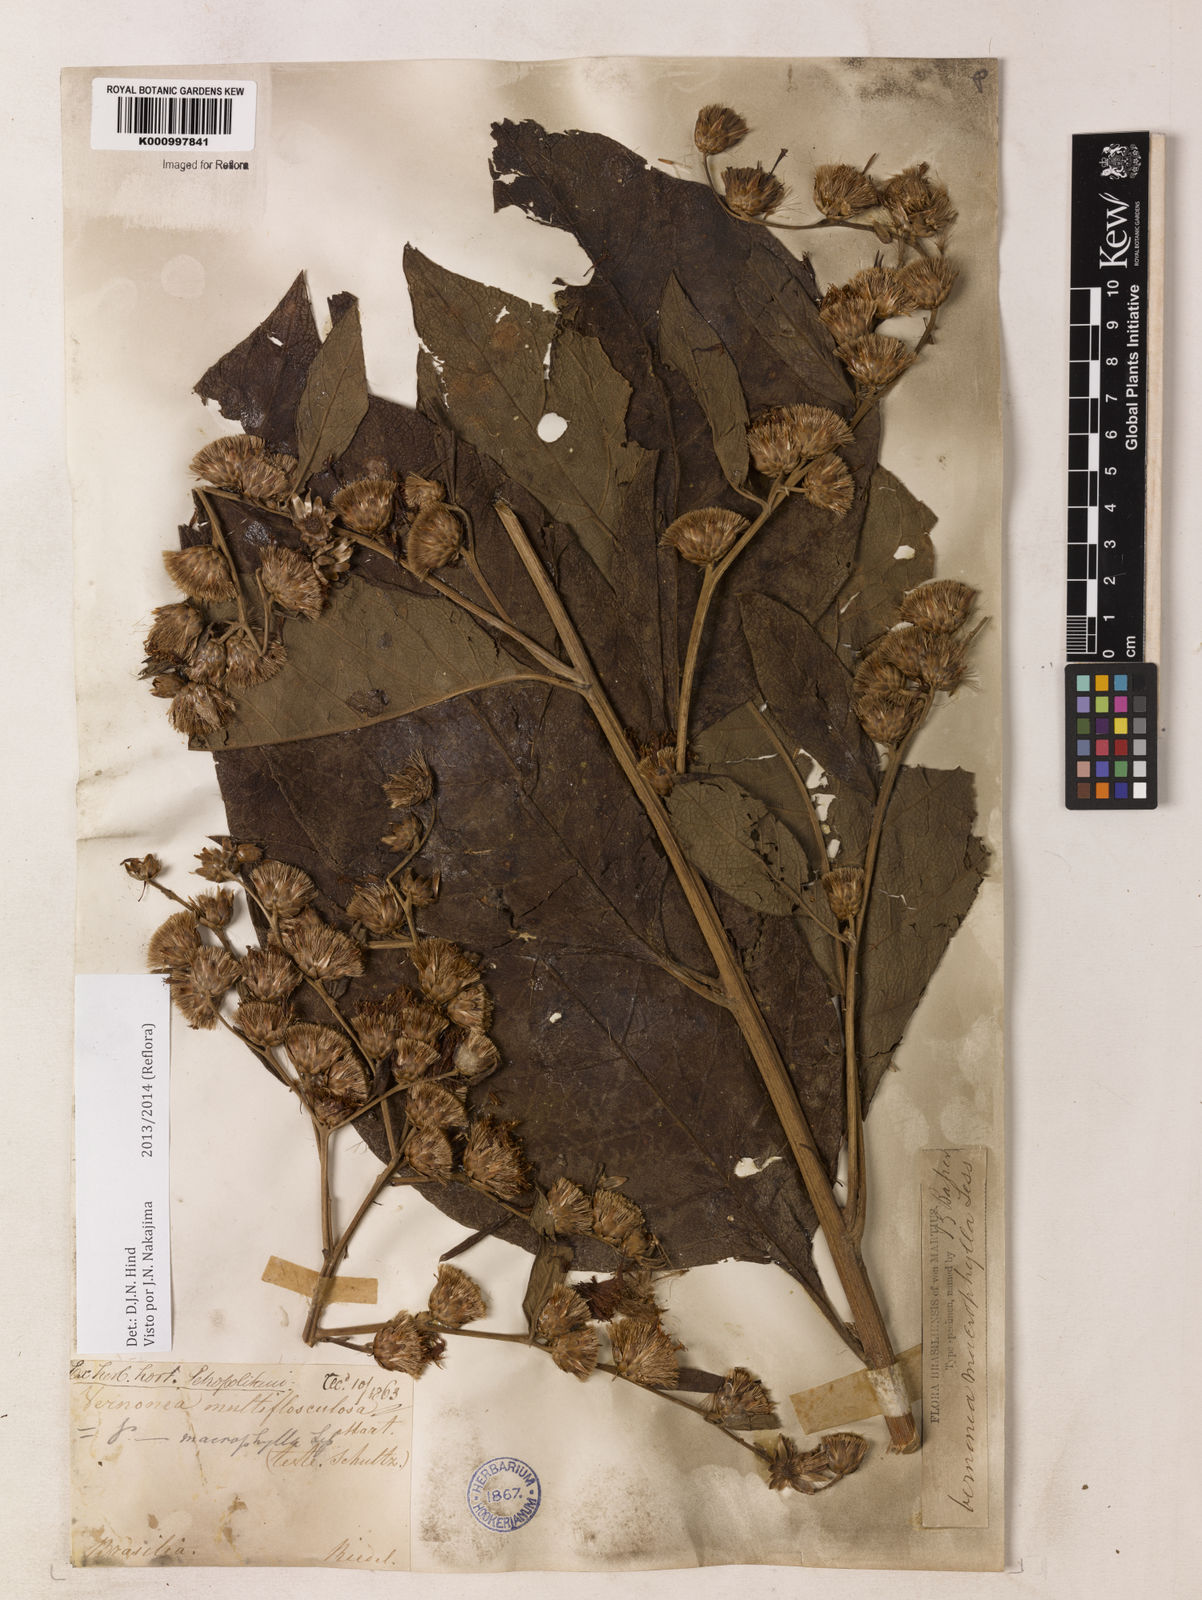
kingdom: Plantae
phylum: Tracheophyta
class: Magnoliopsida
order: Asterales
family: Asteraceae
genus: Lessingianthus
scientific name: Lessingianthus macrophyllus
